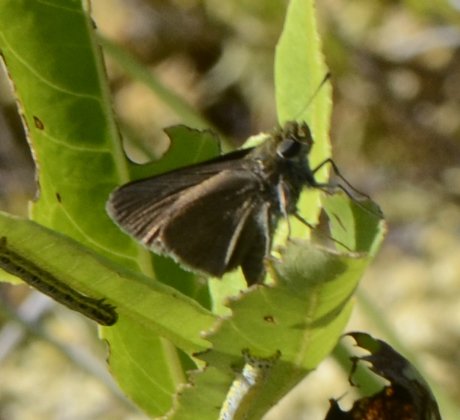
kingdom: Animalia
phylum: Arthropoda
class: Insecta
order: Lepidoptera
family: Hesperiidae
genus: Euphyes
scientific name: Euphyes vestris
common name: Dun Skipper
